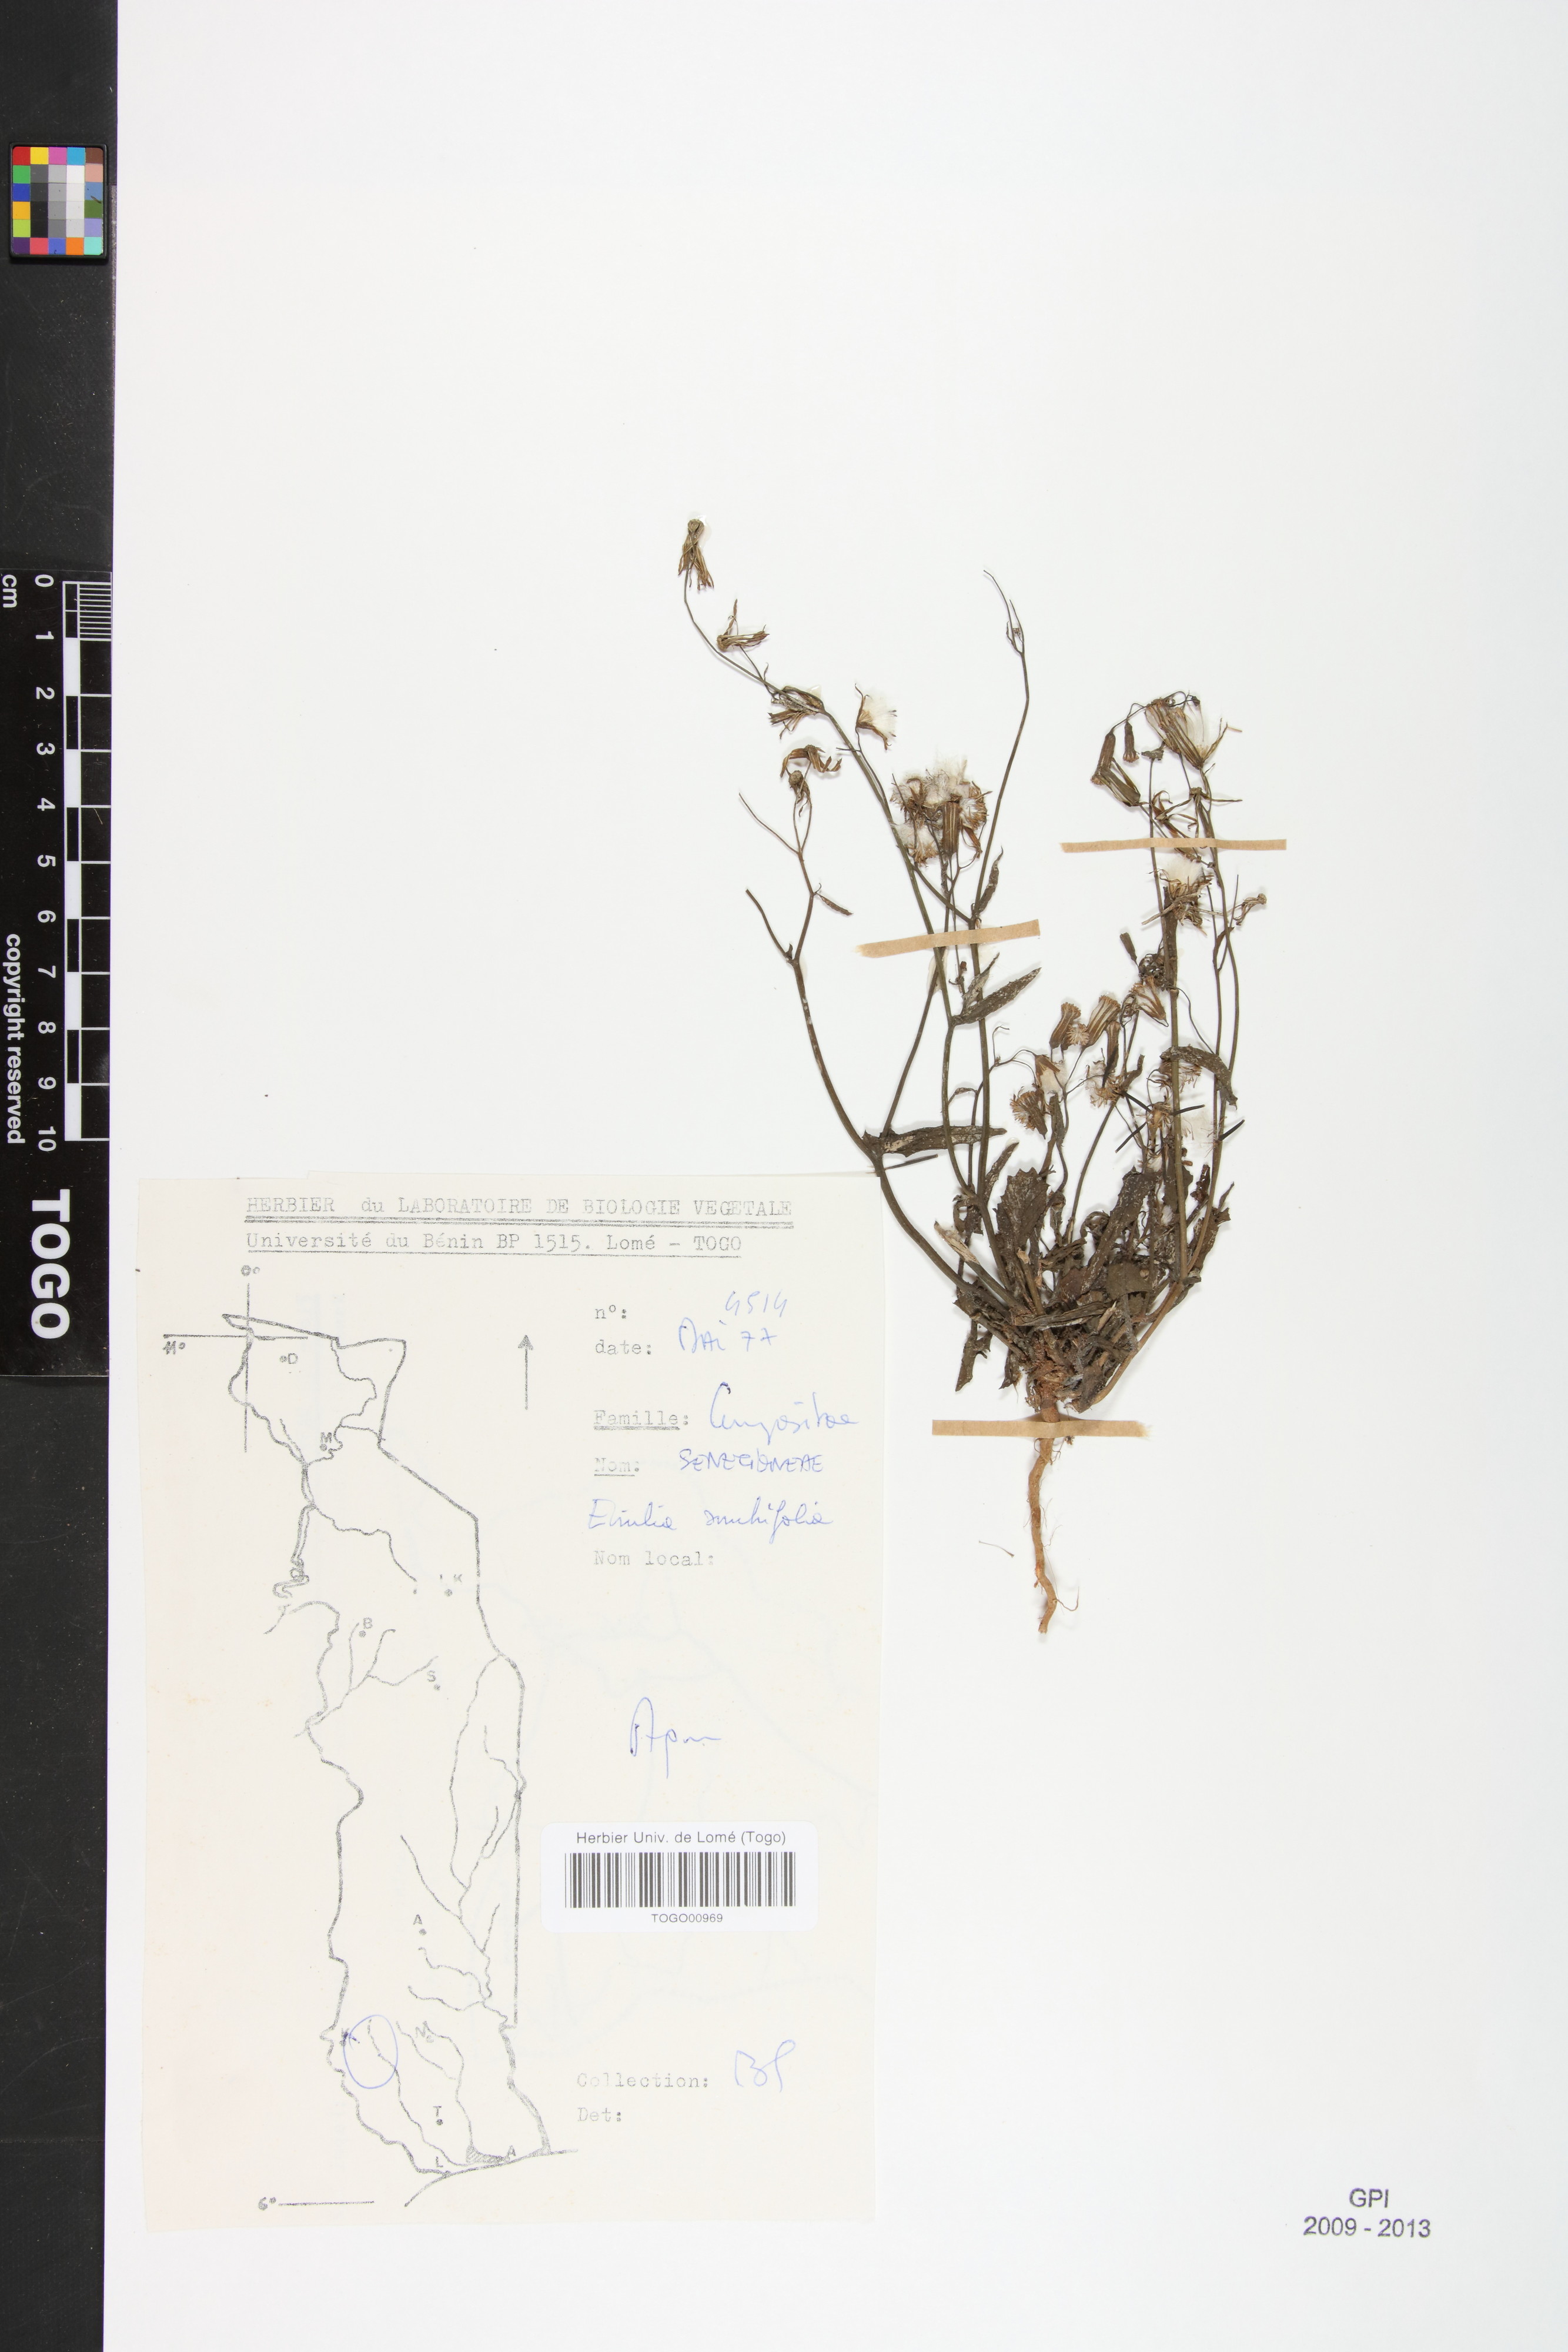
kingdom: Plantae
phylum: Tracheophyta
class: Magnoliopsida
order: Asterales
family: Asteraceae
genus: Emilia
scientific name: Emilia sonchifolia
